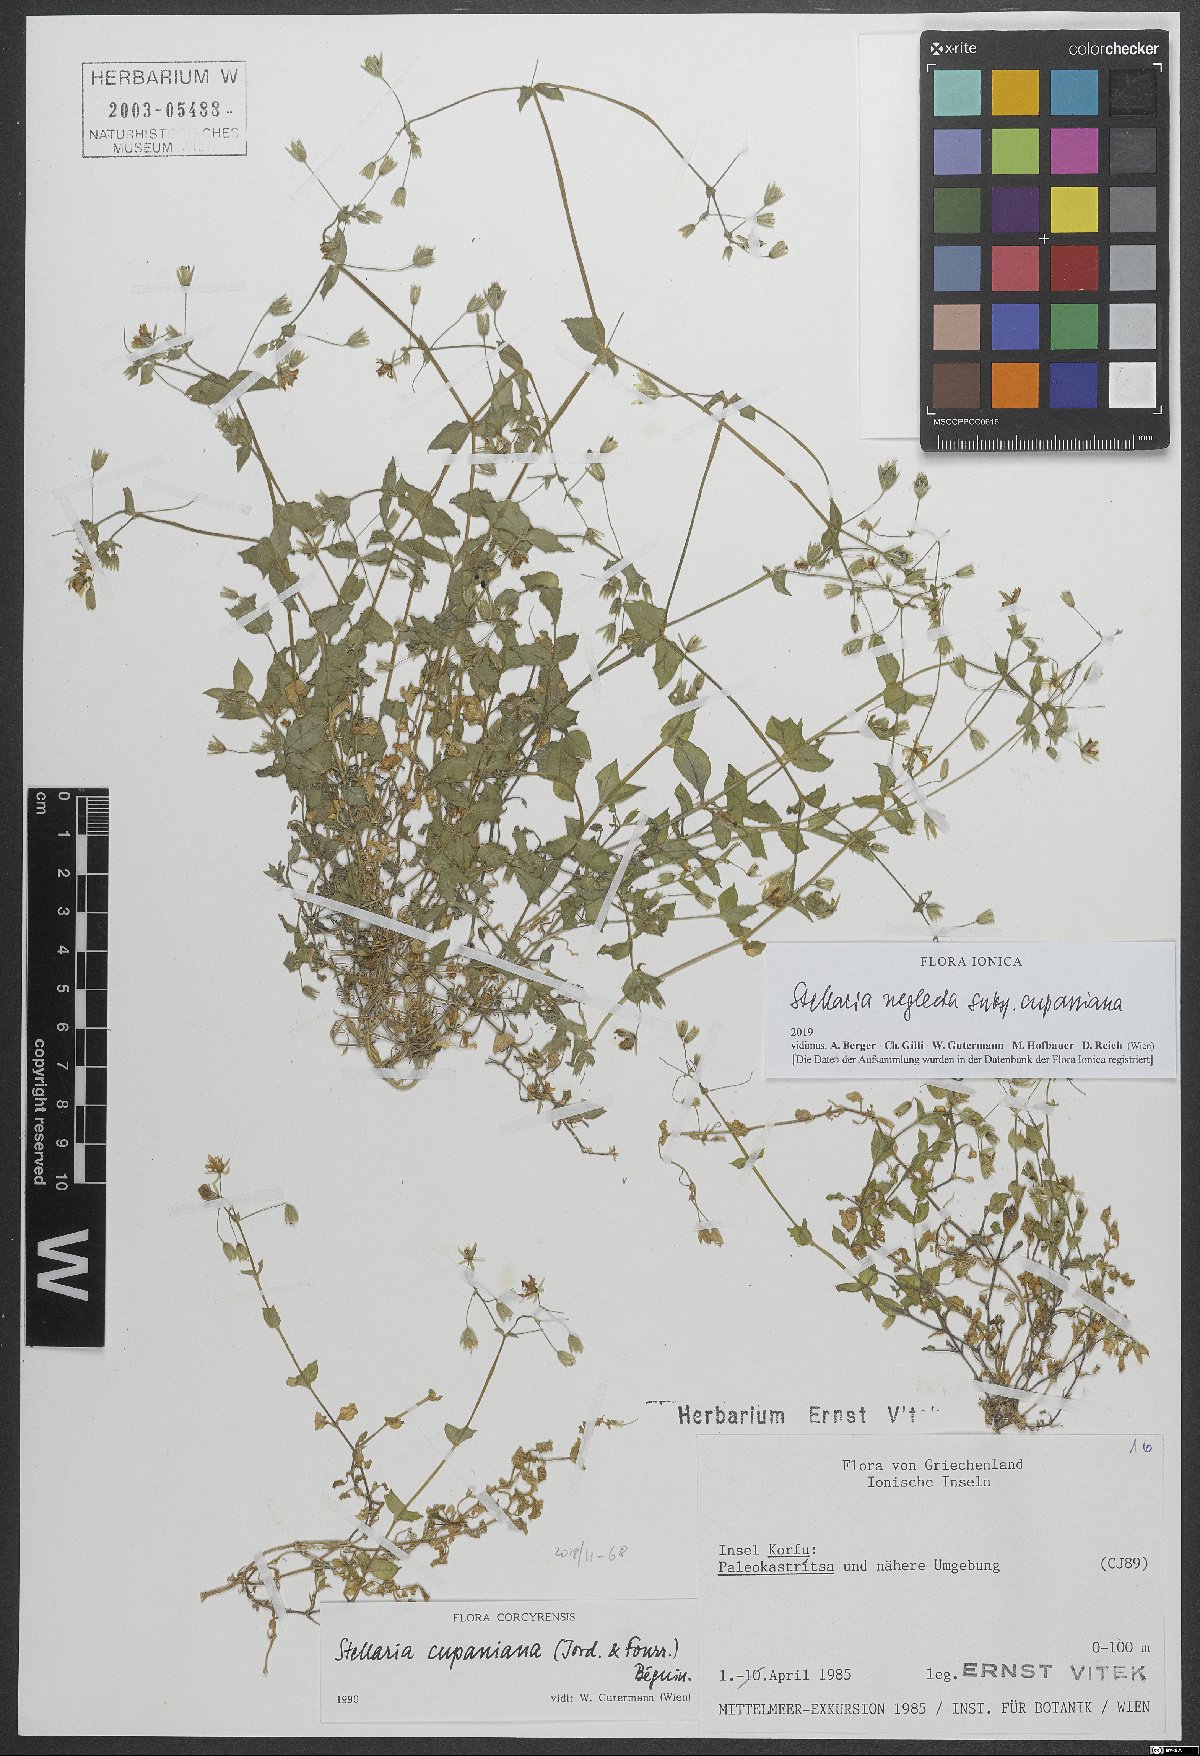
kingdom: Plantae
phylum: Tracheophyta
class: Magnoliopsida
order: Caryophyllales
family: Caryophyllaceae
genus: Stellaria
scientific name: Stellaria cupaniana
